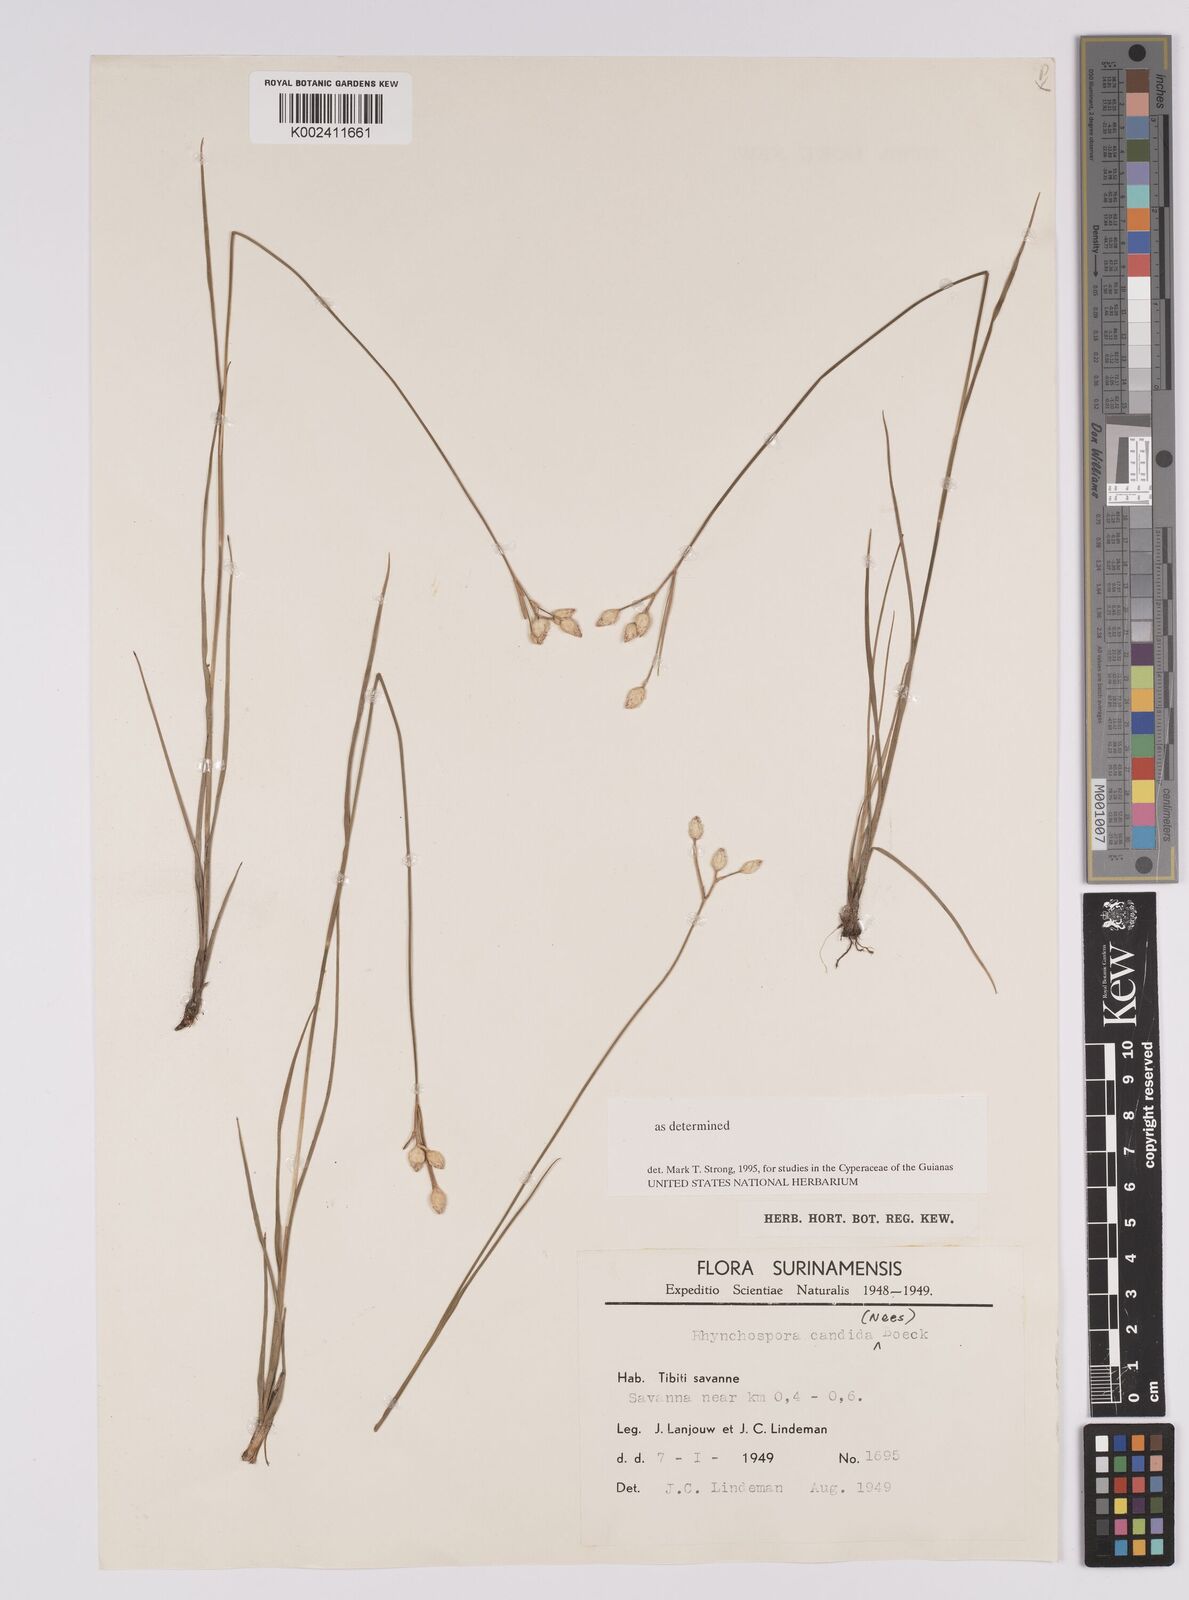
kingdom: Plantae
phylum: Tracheophyta
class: Liliopsida
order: Poales
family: Cyperaceae
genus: Rhynchospora
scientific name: Rhynchospora candida
